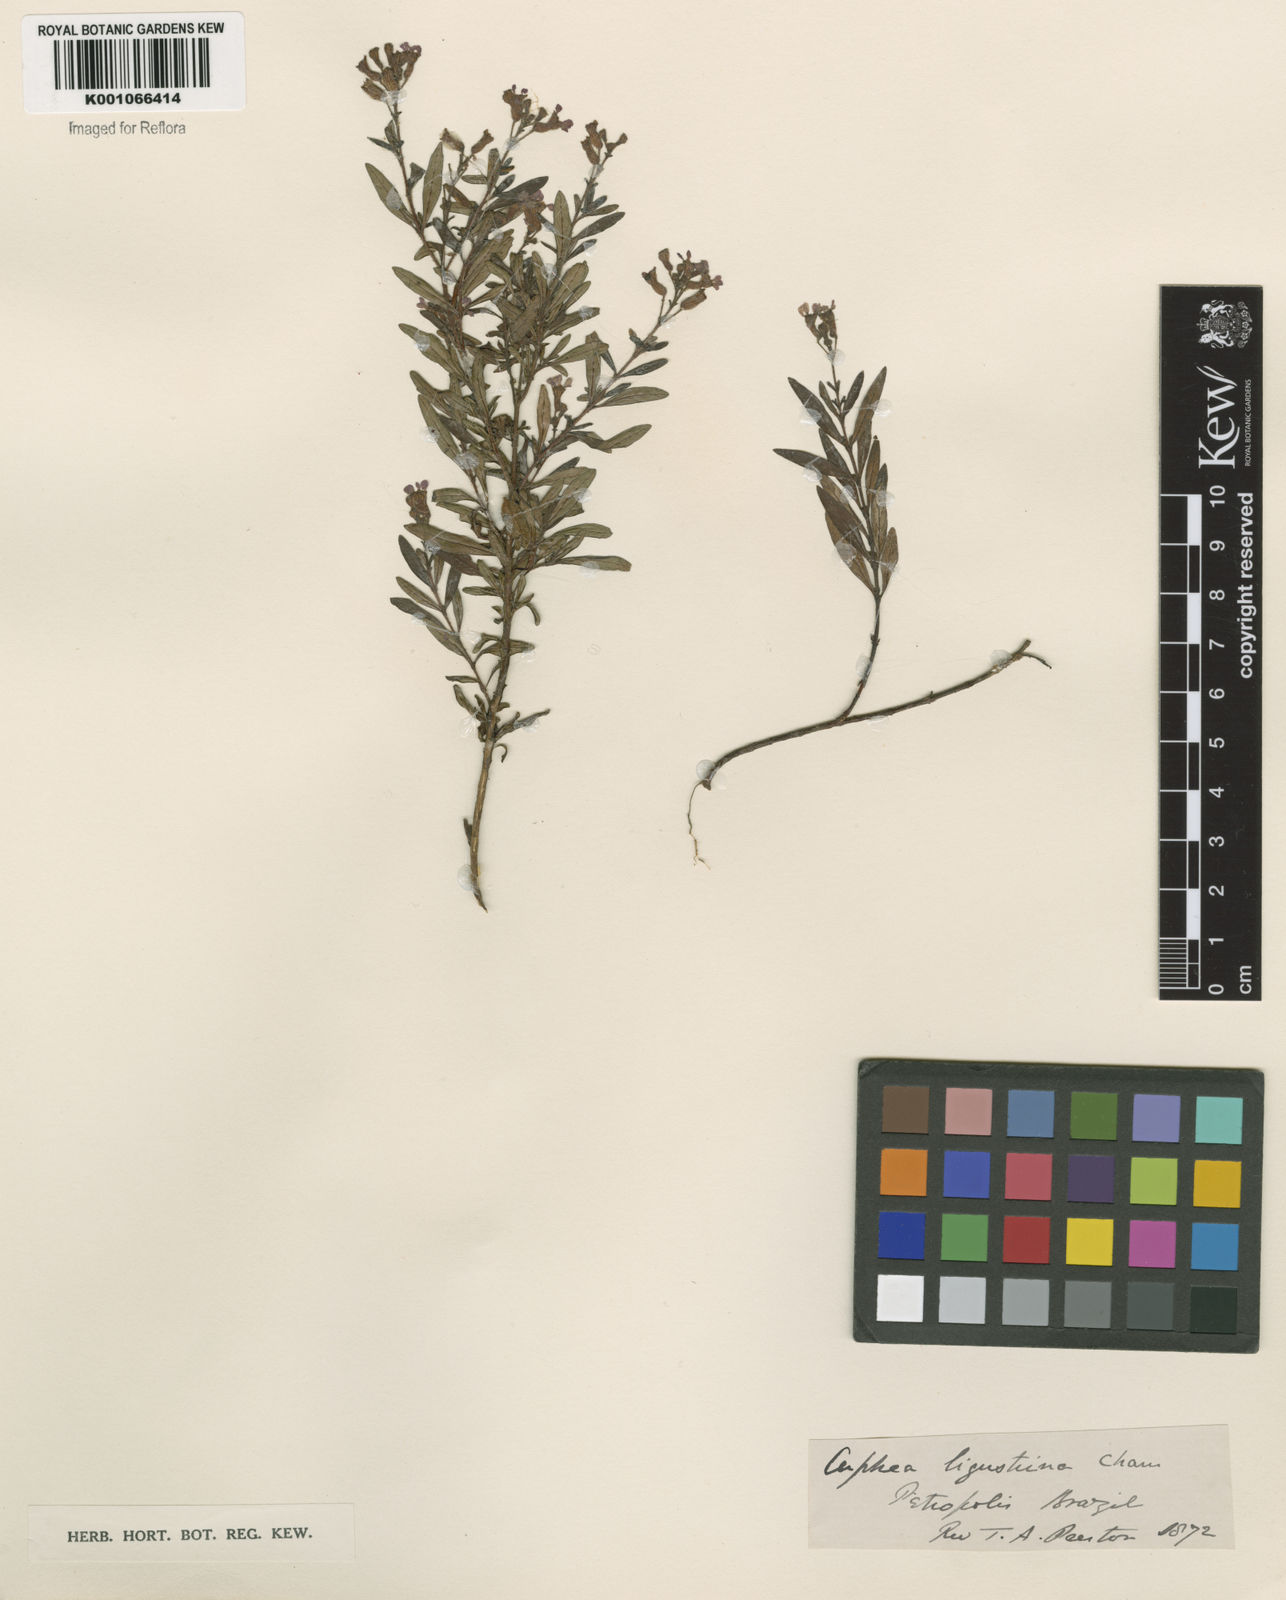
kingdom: Plantae
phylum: Tracheophyta
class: Magnoliopsida
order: Myrtales
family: Lythraceae
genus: Cuphea
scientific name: Cuphea fruticosa
